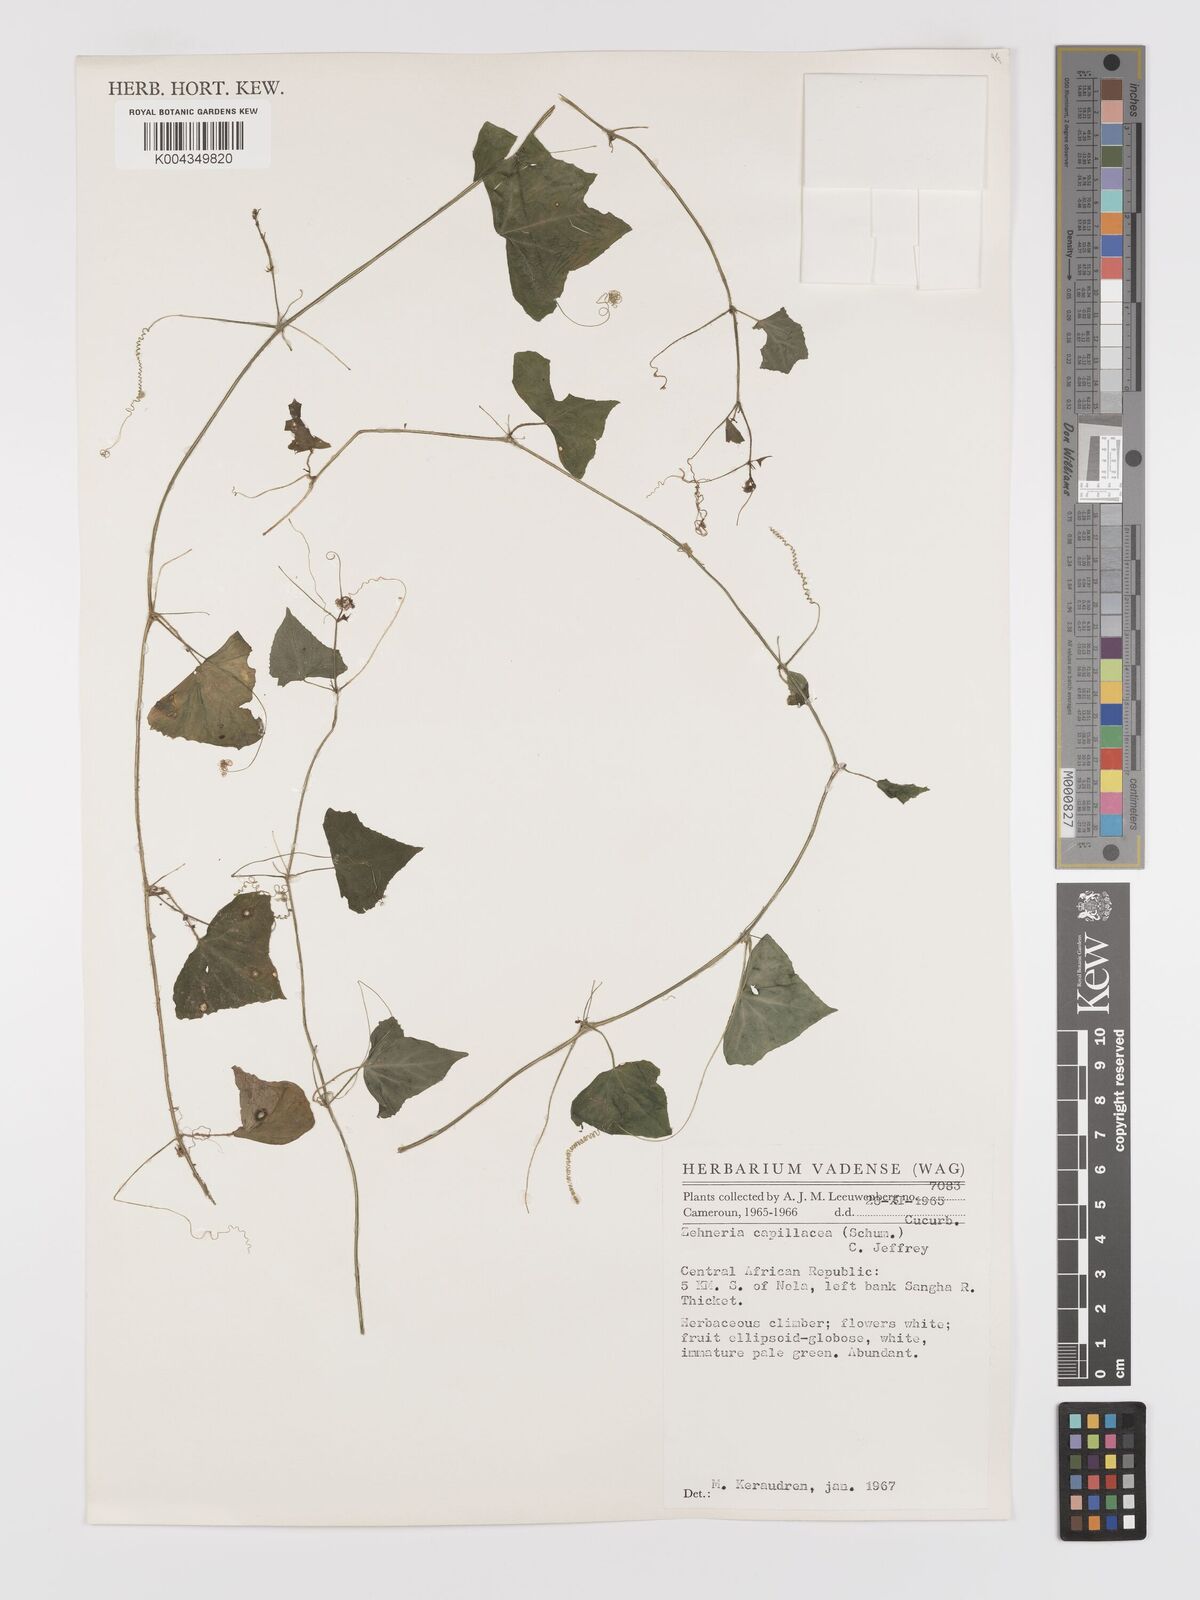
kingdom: Plantae
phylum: Tracheophyta
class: Magnoliopsida
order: Cucurbitales
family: Cucurbitaceae
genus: Zehneria
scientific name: Zehneria capillacea
